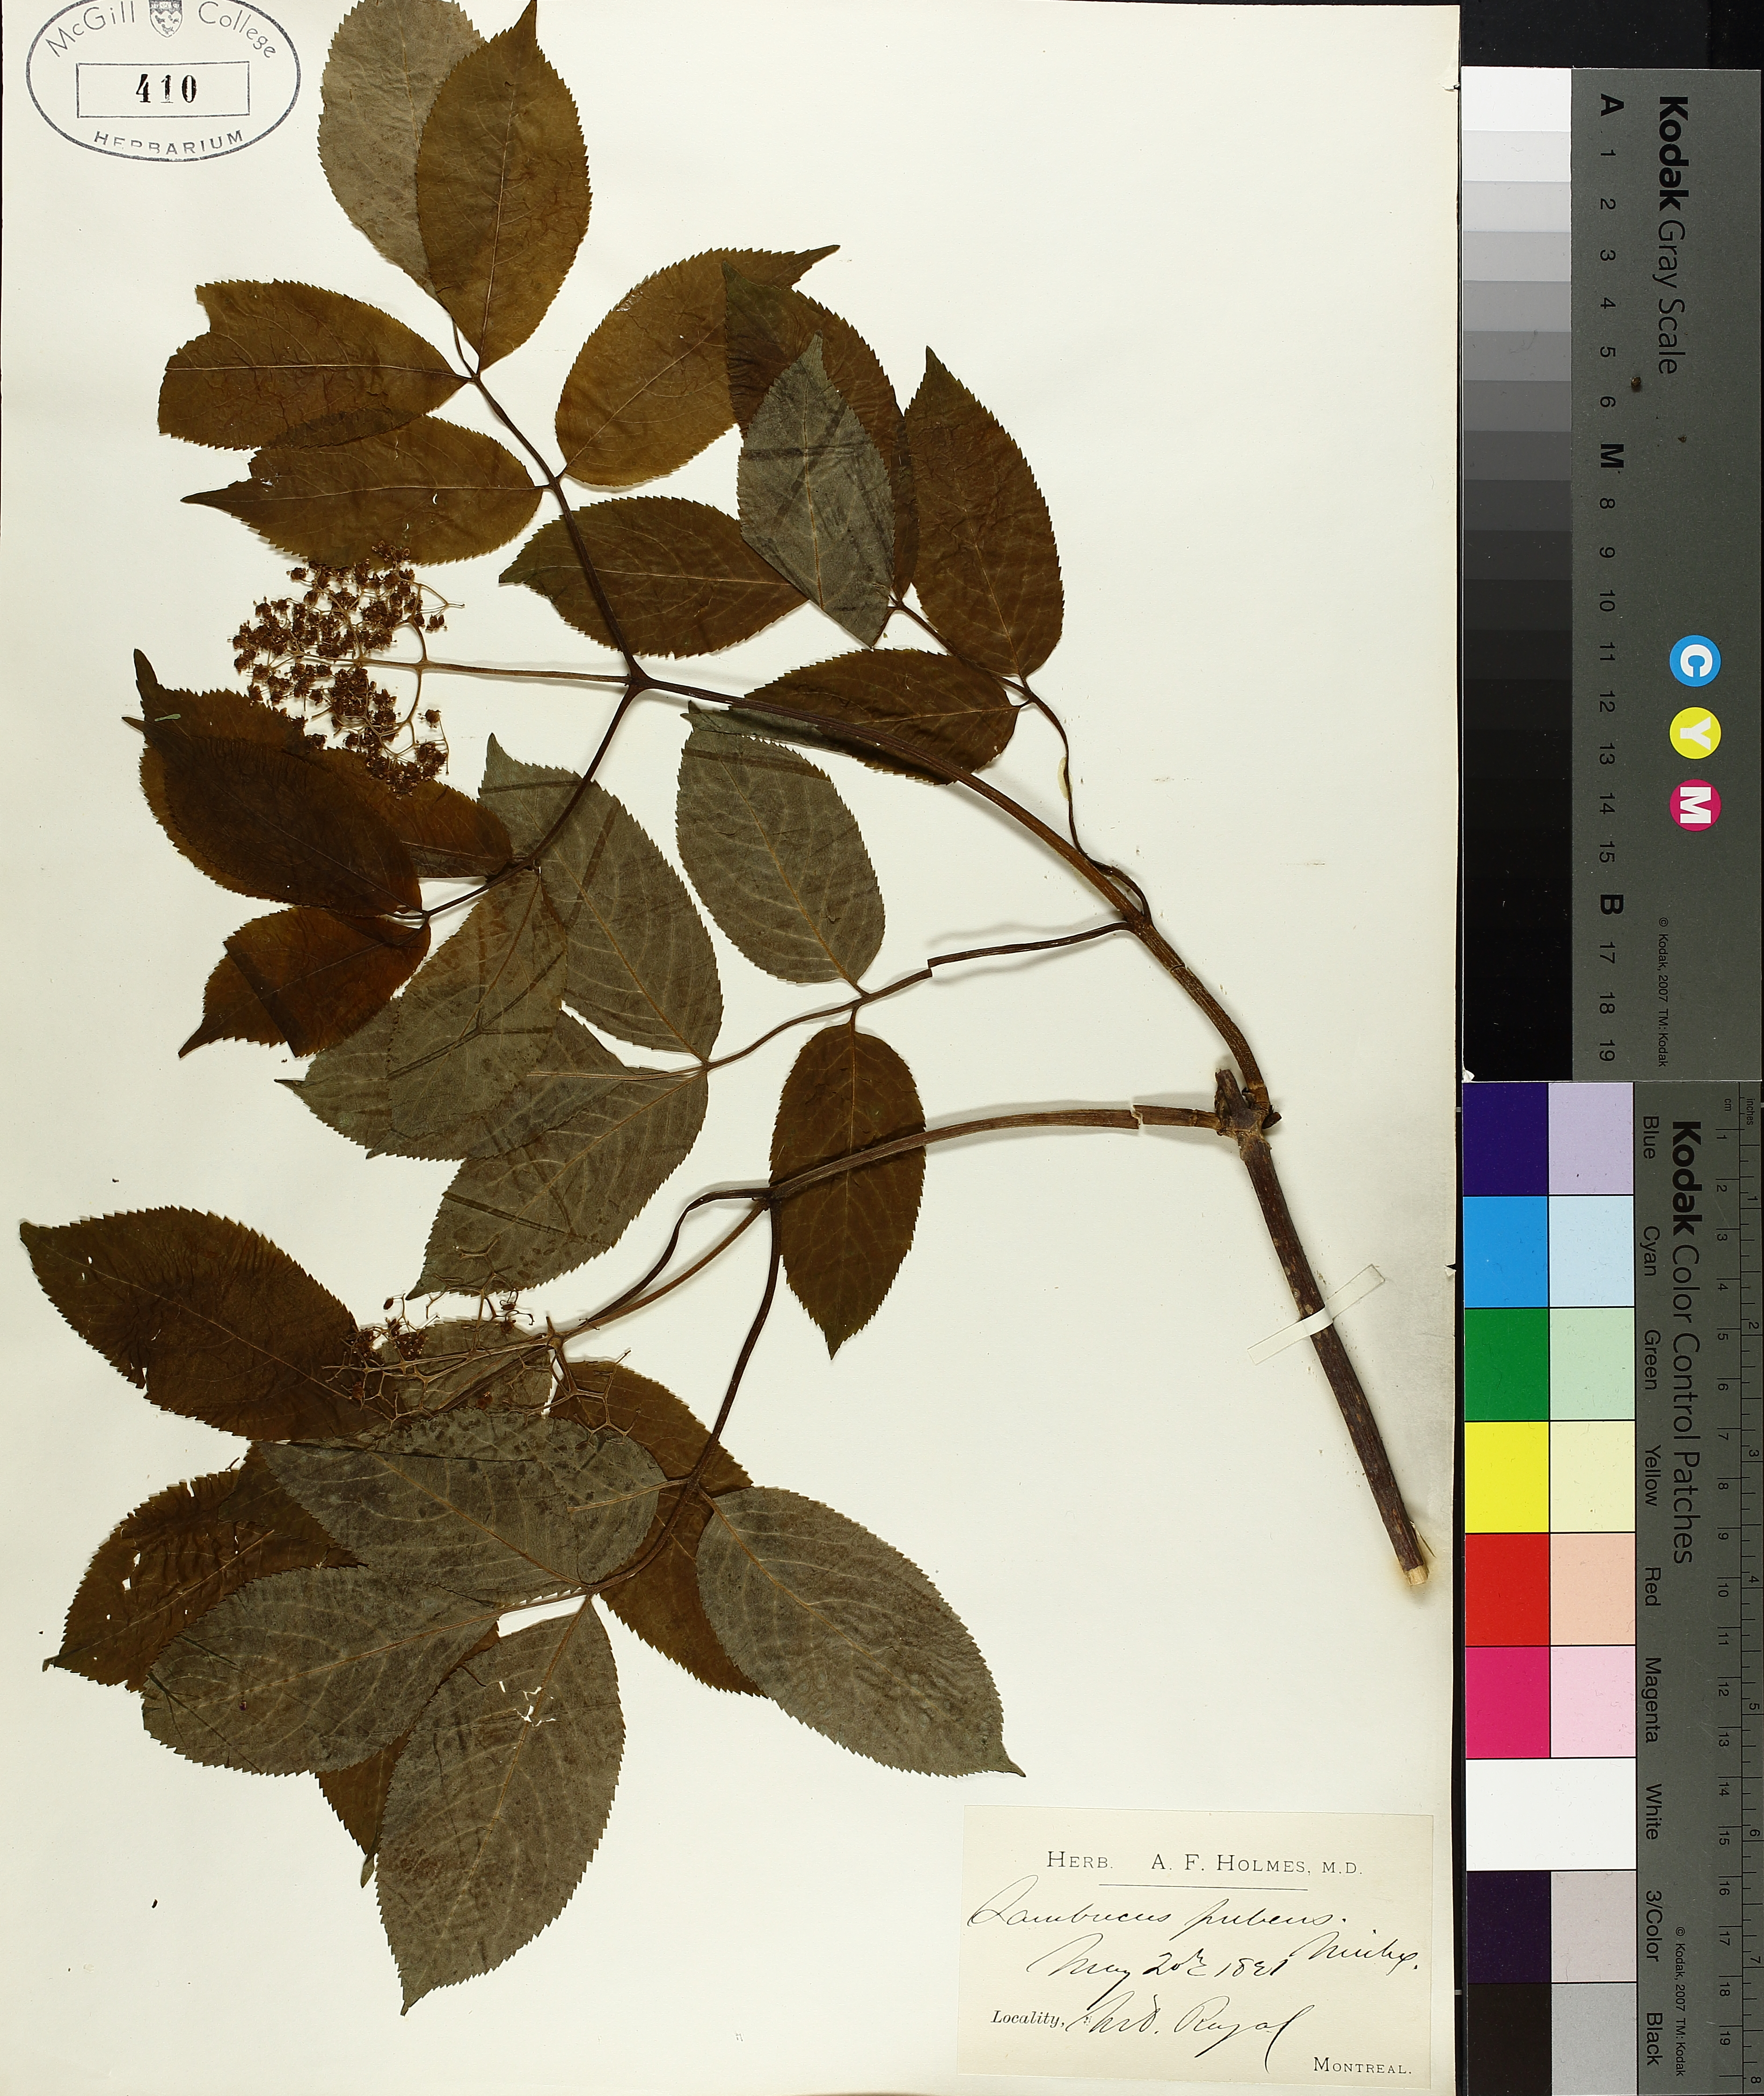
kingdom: Plantae
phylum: Tracheophyta
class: Magnoliopsida
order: Dipsacales
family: Viburnaceae
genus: Sambucus
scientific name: Sambucus racemosa
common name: Red-berried elder
